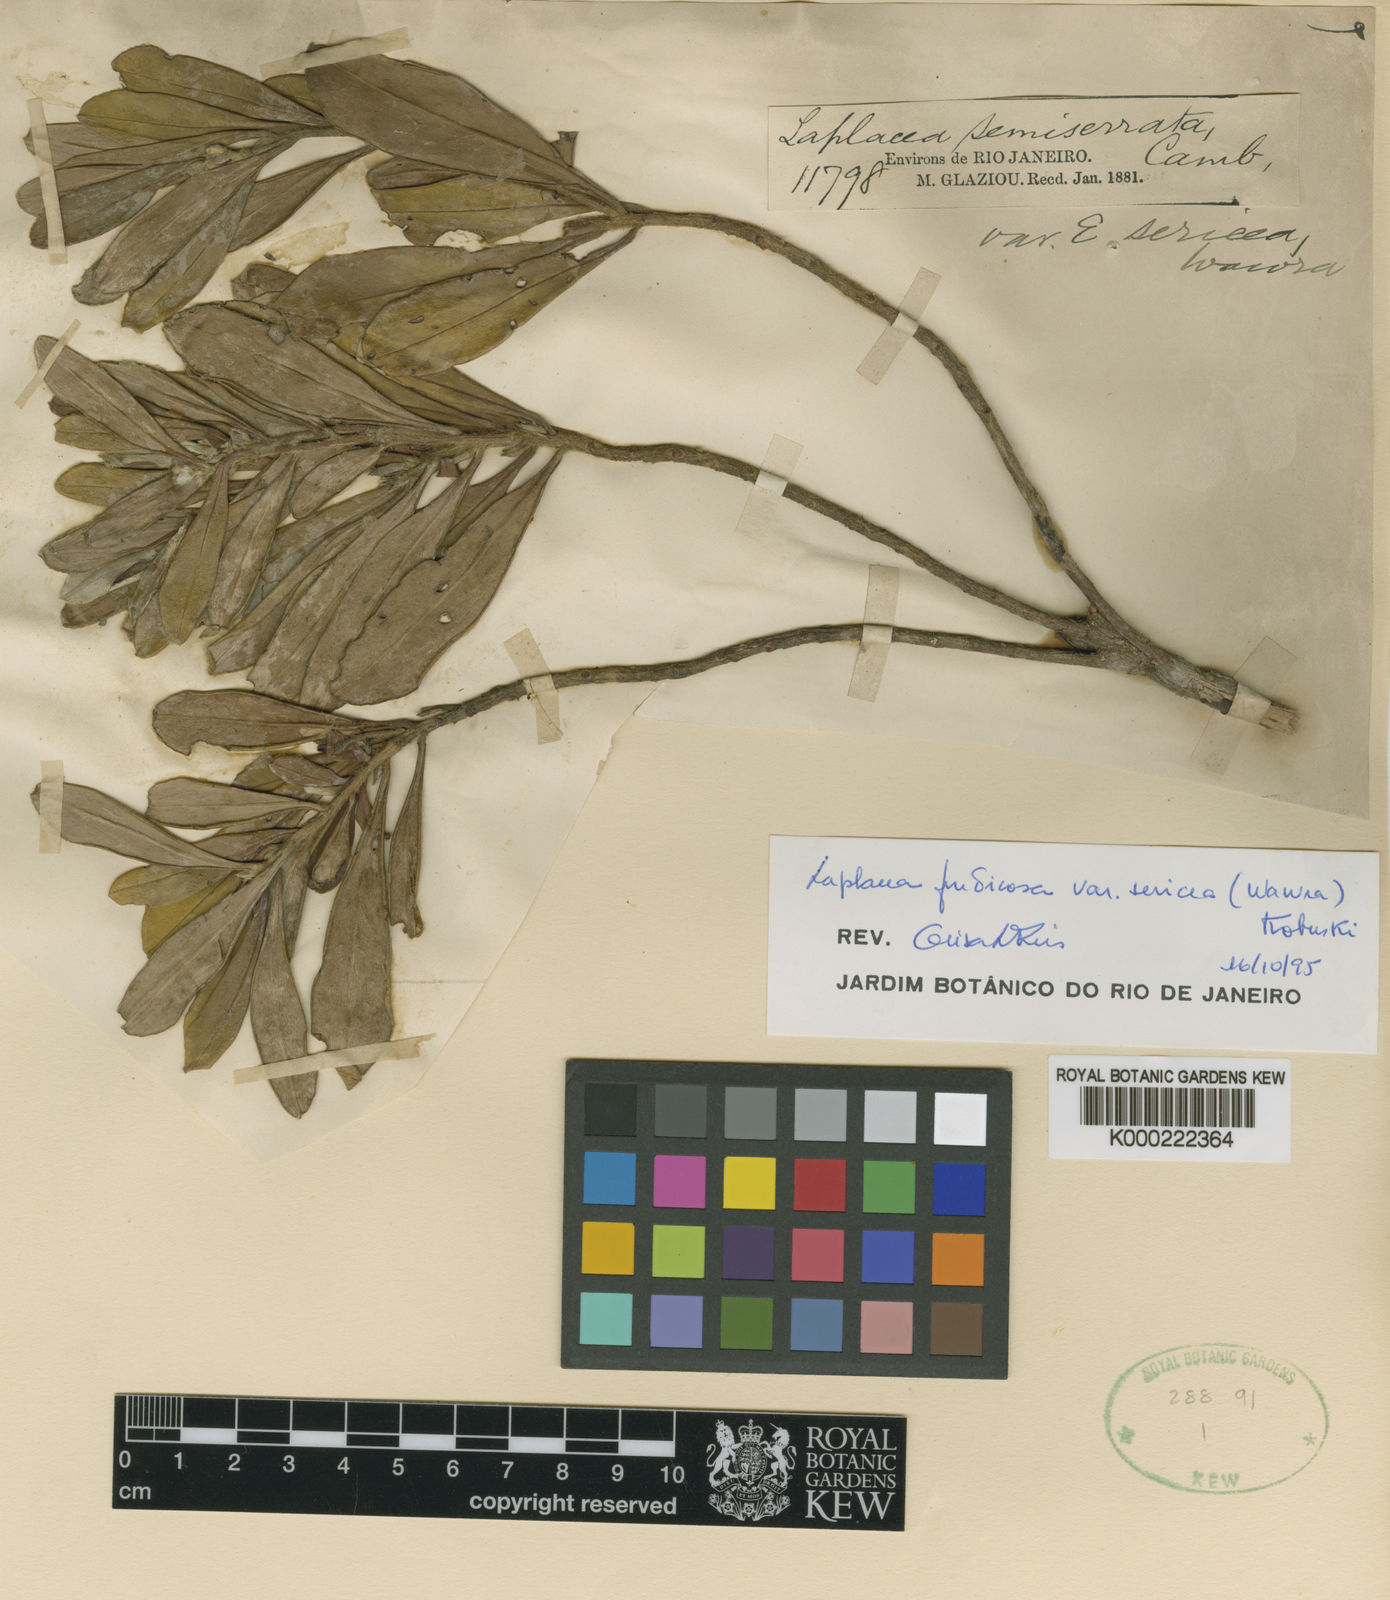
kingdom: Plantae
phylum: Tracheophyta
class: Magnoliopsida
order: Ericales
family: Theaceae
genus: Gordonia
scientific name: Gordonia fruticosa
